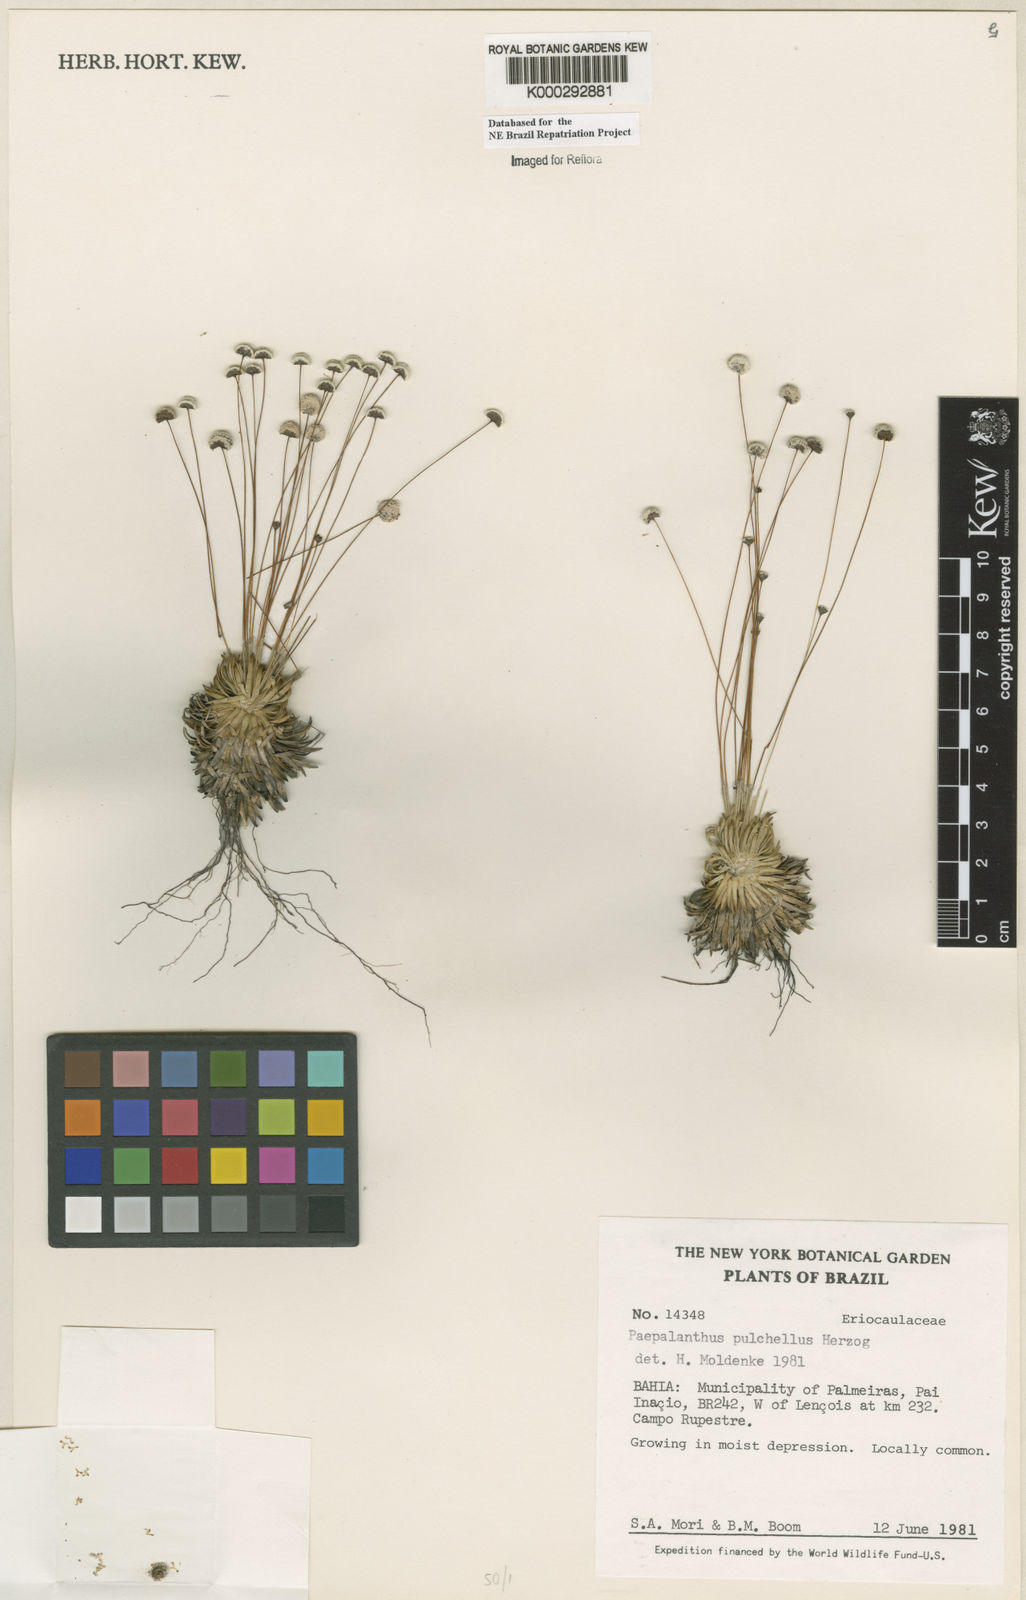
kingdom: Plantae
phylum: Tracheophyta
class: Liliopsida
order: Poales
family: Eriocaulaceae
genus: Paepalanthus
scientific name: Paepalanthus pulchellus
